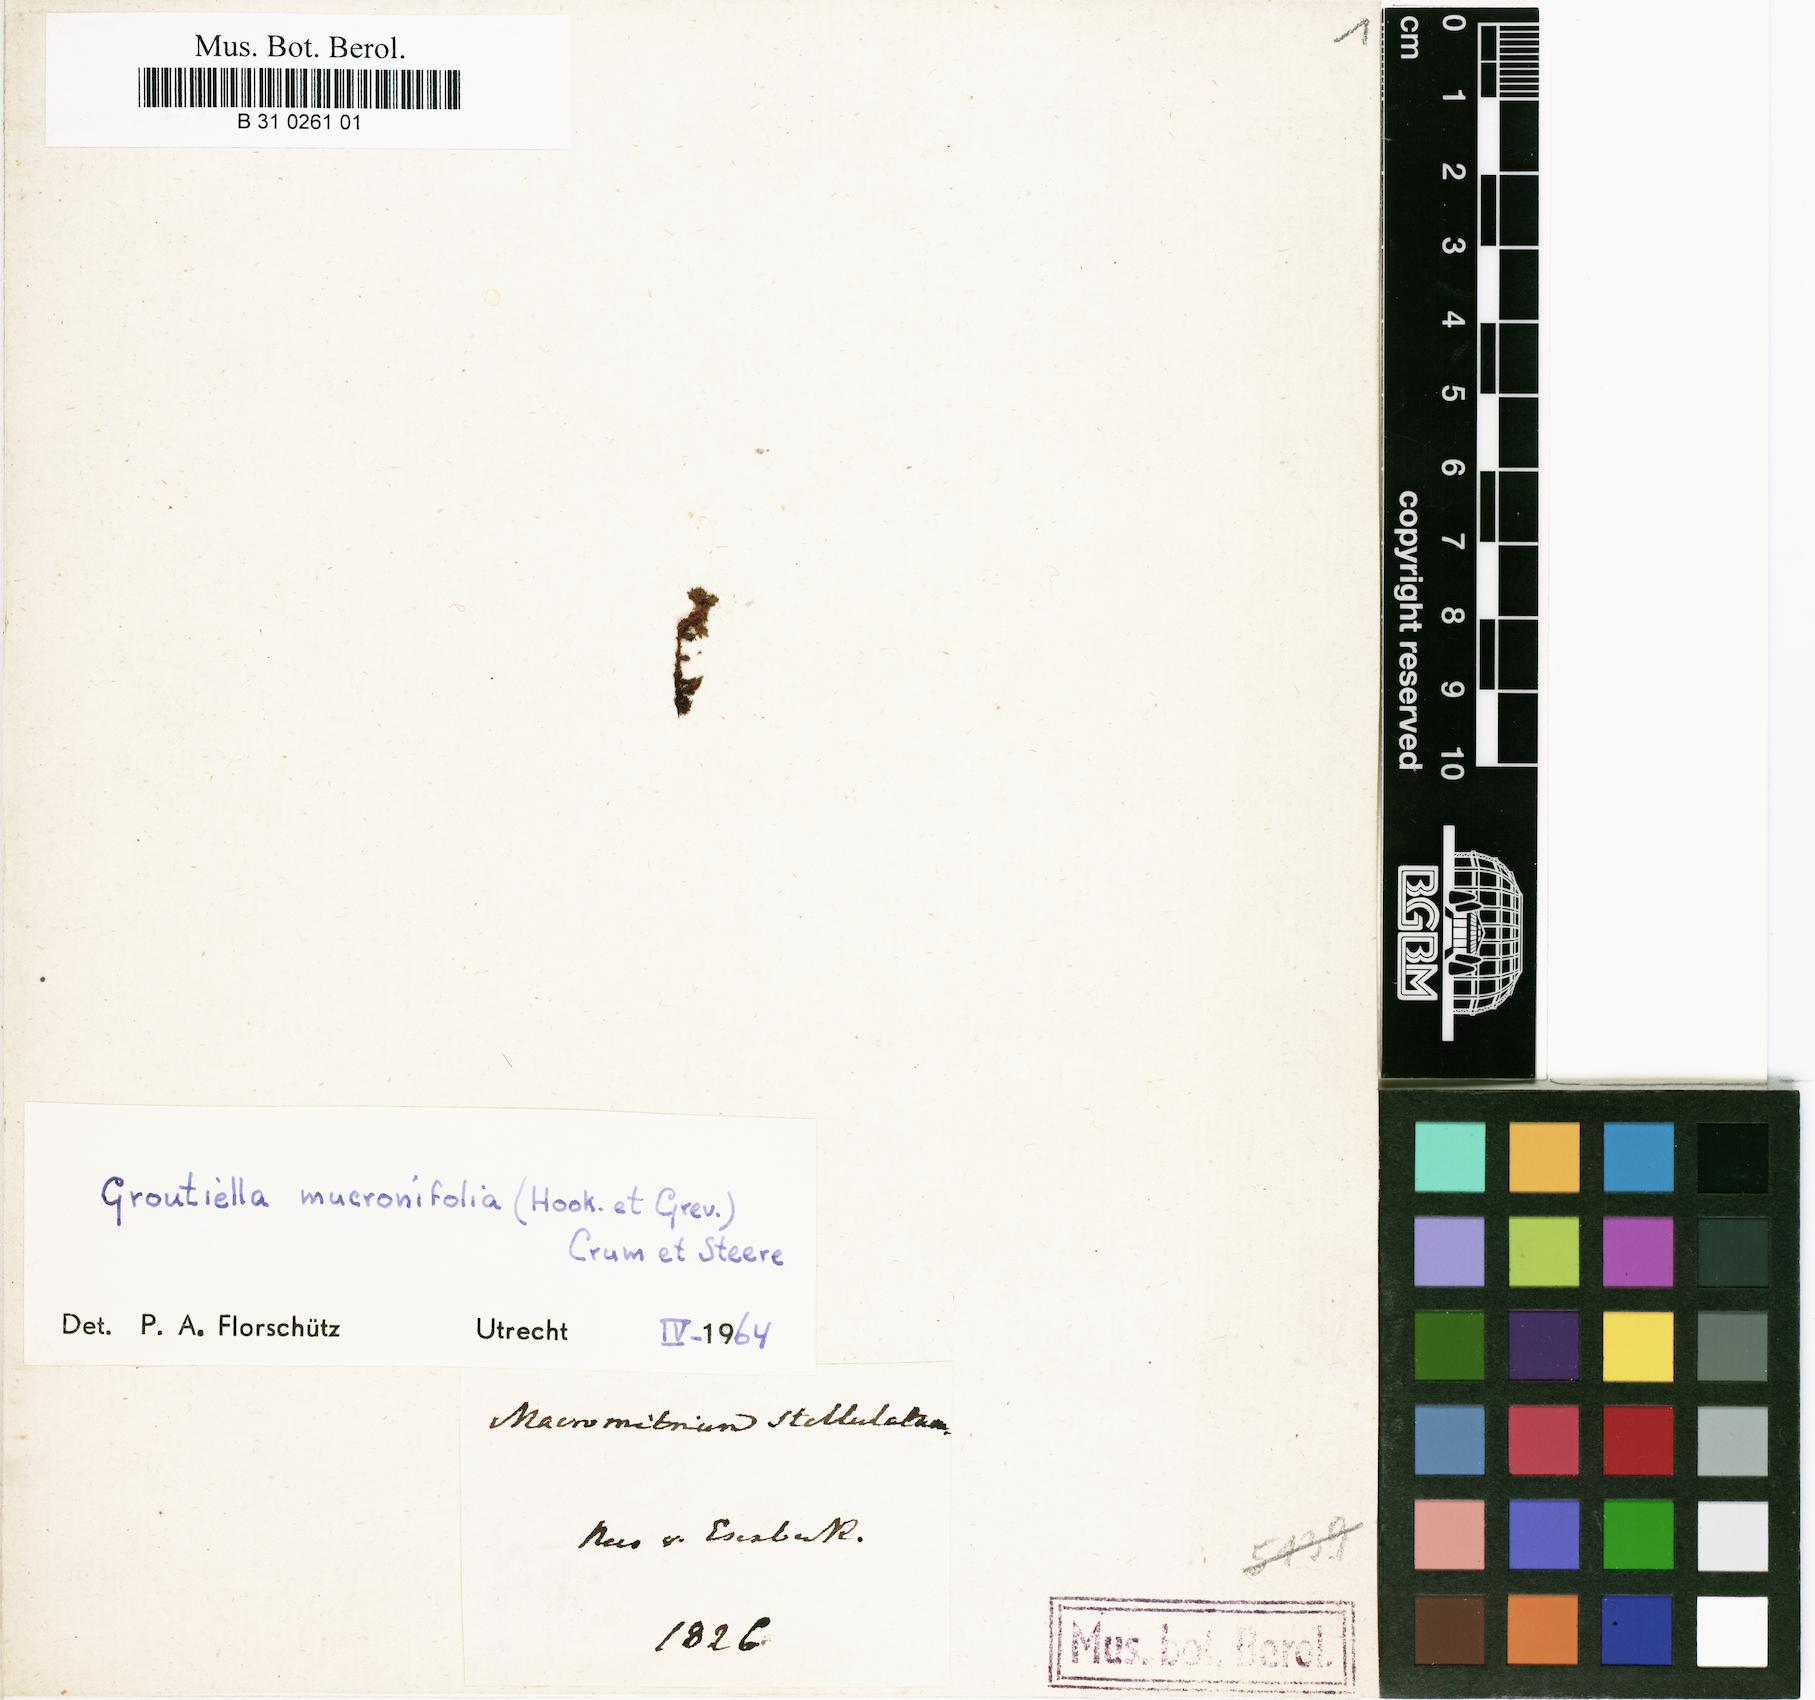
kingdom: Plantae
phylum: Bryophyta
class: Bryopsida
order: Orthotrichales
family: Orthotrichaceae
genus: Macromitrium
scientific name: Macromitrium swainsonii
